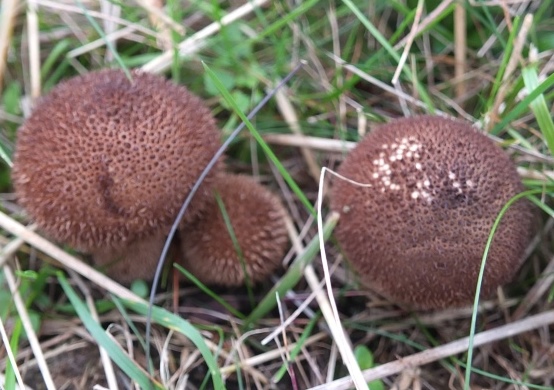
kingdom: Fungi
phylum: Basidiomycota
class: Agaricomycetes
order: Agaricales
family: Lycoperdaceae
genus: Lycoperdon
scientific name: Lycoperdon nigrescens
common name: sortagtig støvbold
